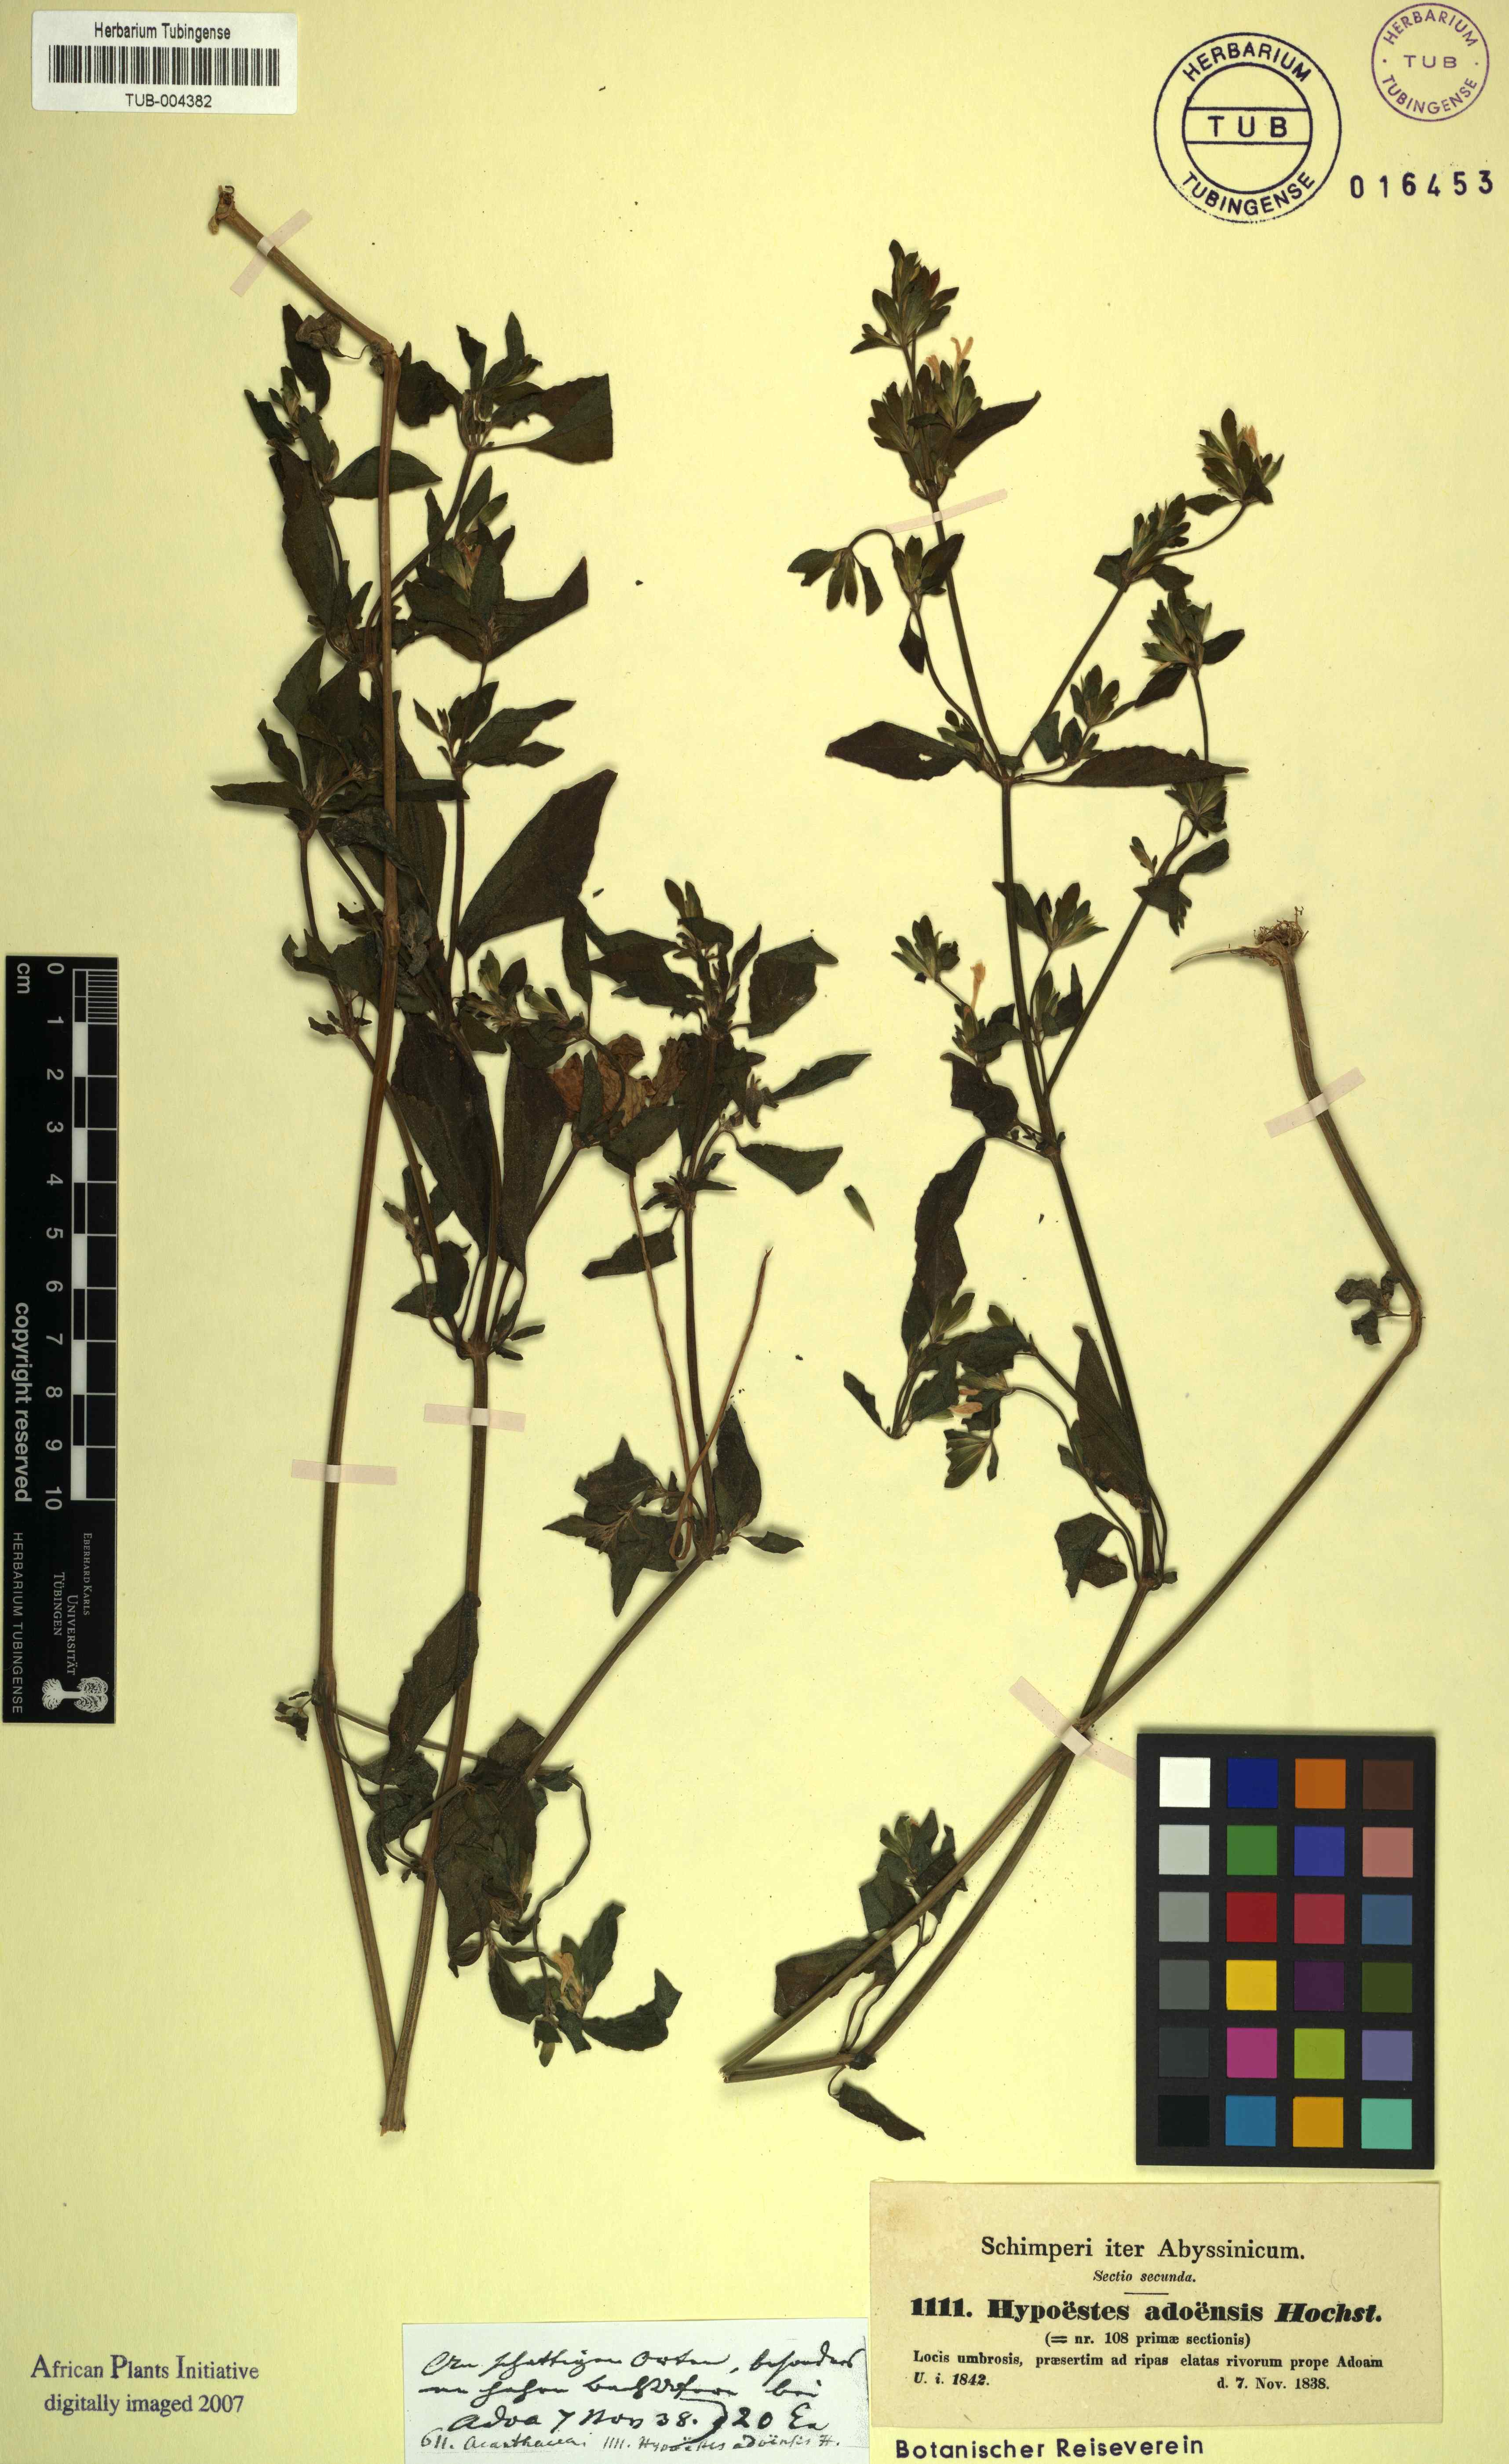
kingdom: Plantae
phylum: Tracheophyta
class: Magnoliopsida
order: Lamiales
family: Acanthaceae
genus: Hypoestes
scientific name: Hypoestes triflora
